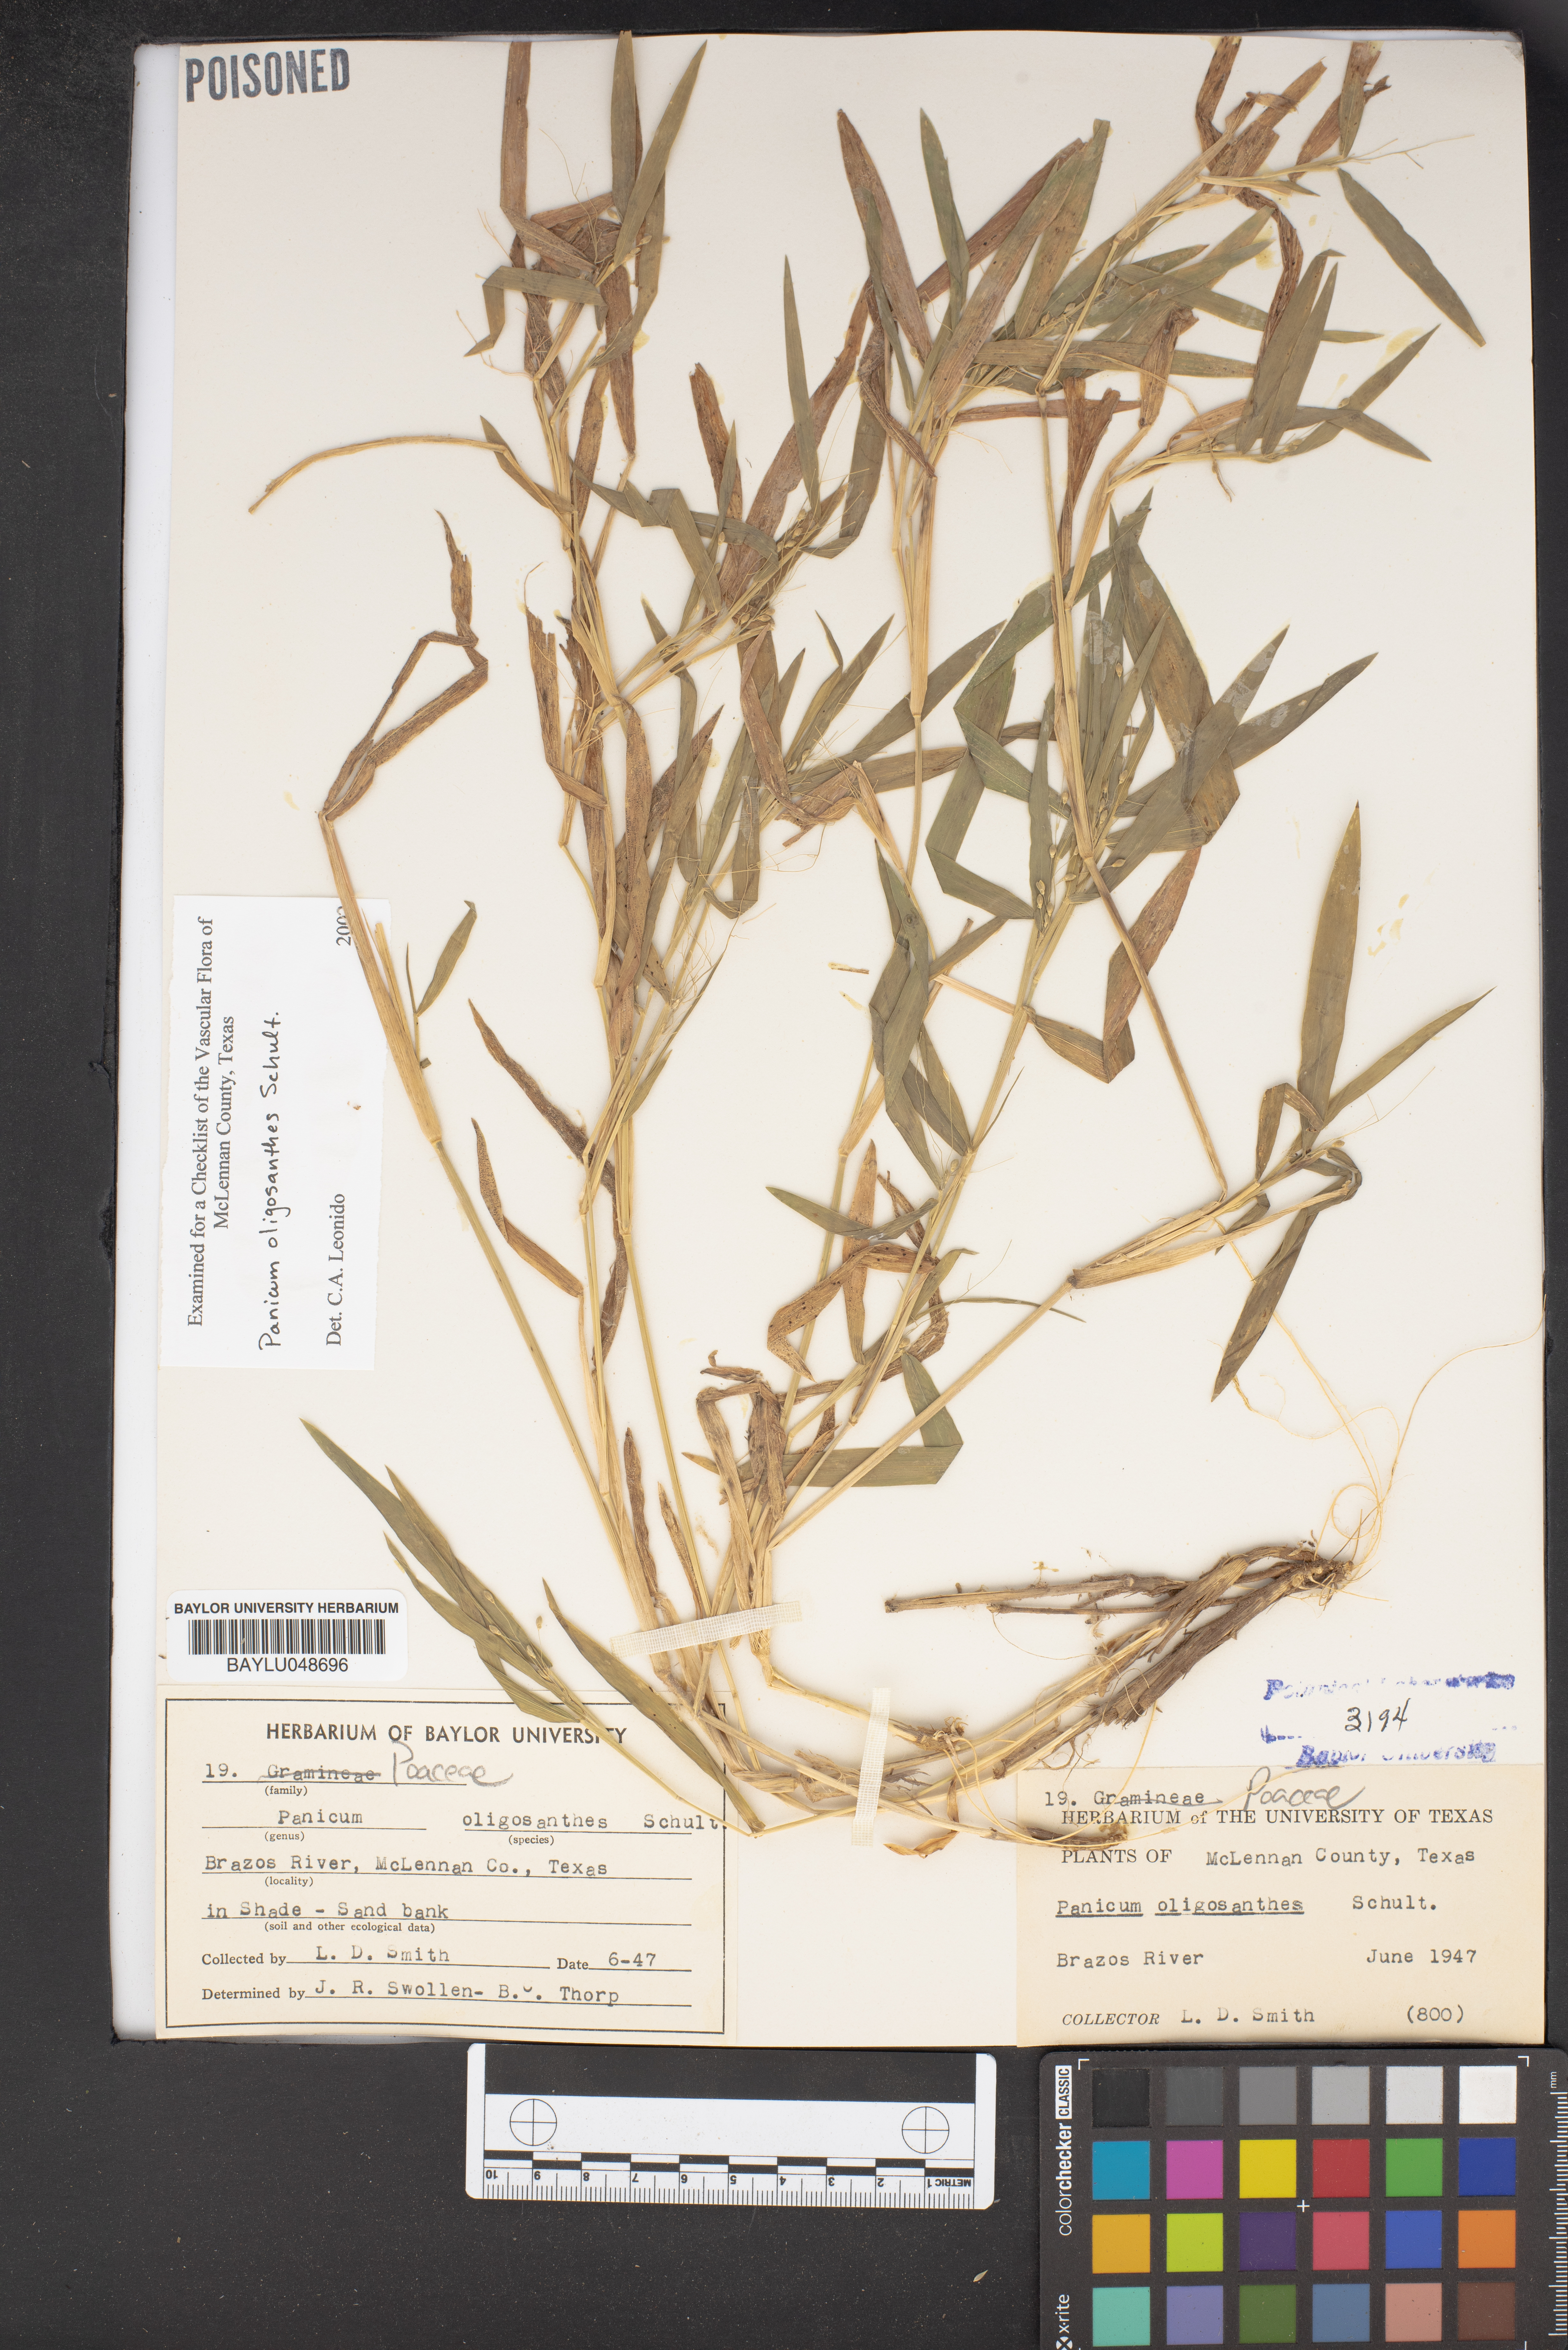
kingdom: Plantae
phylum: Tracheophyta
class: Liliopsida
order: Poales
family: Poaceae
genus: Dichanthelium
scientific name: Dichanthelium oligosanthes
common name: Few-anther obscuregrass
